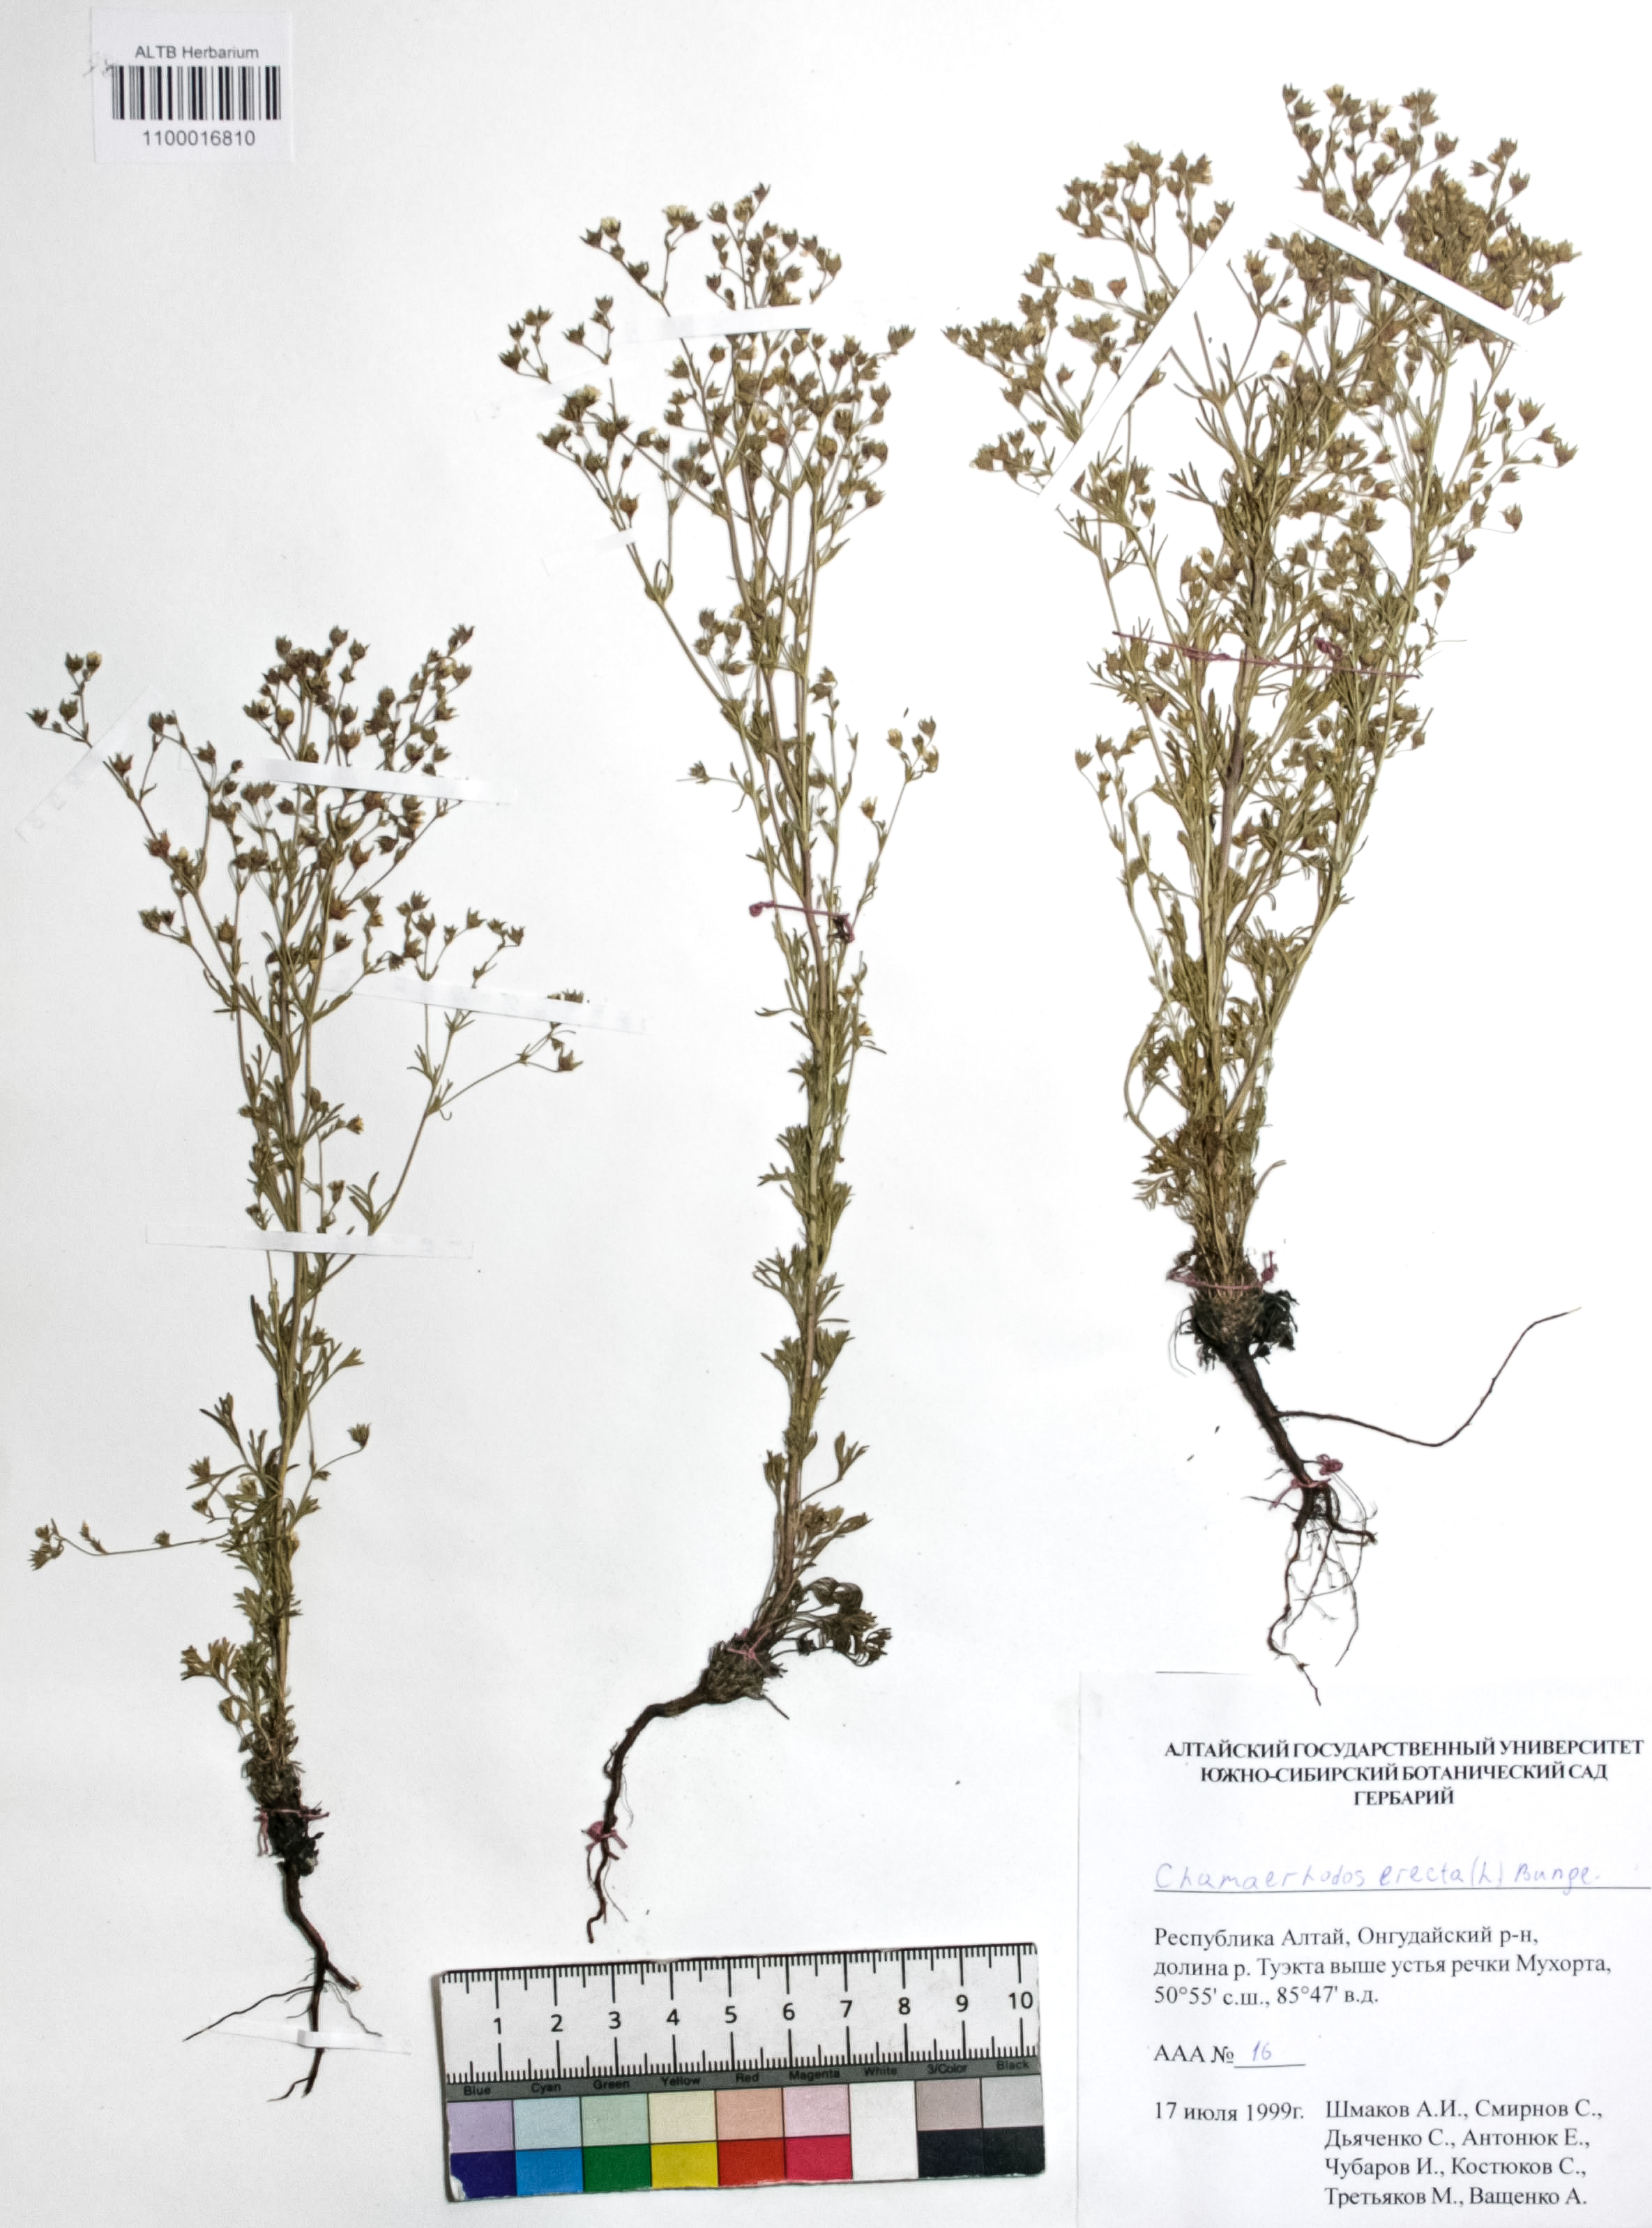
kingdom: Plantae
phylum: Tracheophyta
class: Magnoliopsida
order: Rosales
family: Rosaceae
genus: Chamaerhodos
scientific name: Chamaerhodos erecta
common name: American chamaerhodos
